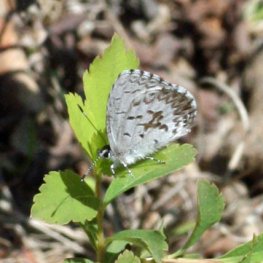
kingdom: Animalia
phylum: Arthropoda
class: Insecta
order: Lepidoptera
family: Lycaenidae
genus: Celastrina
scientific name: Celastrina lucia
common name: Northern Spring Azure
